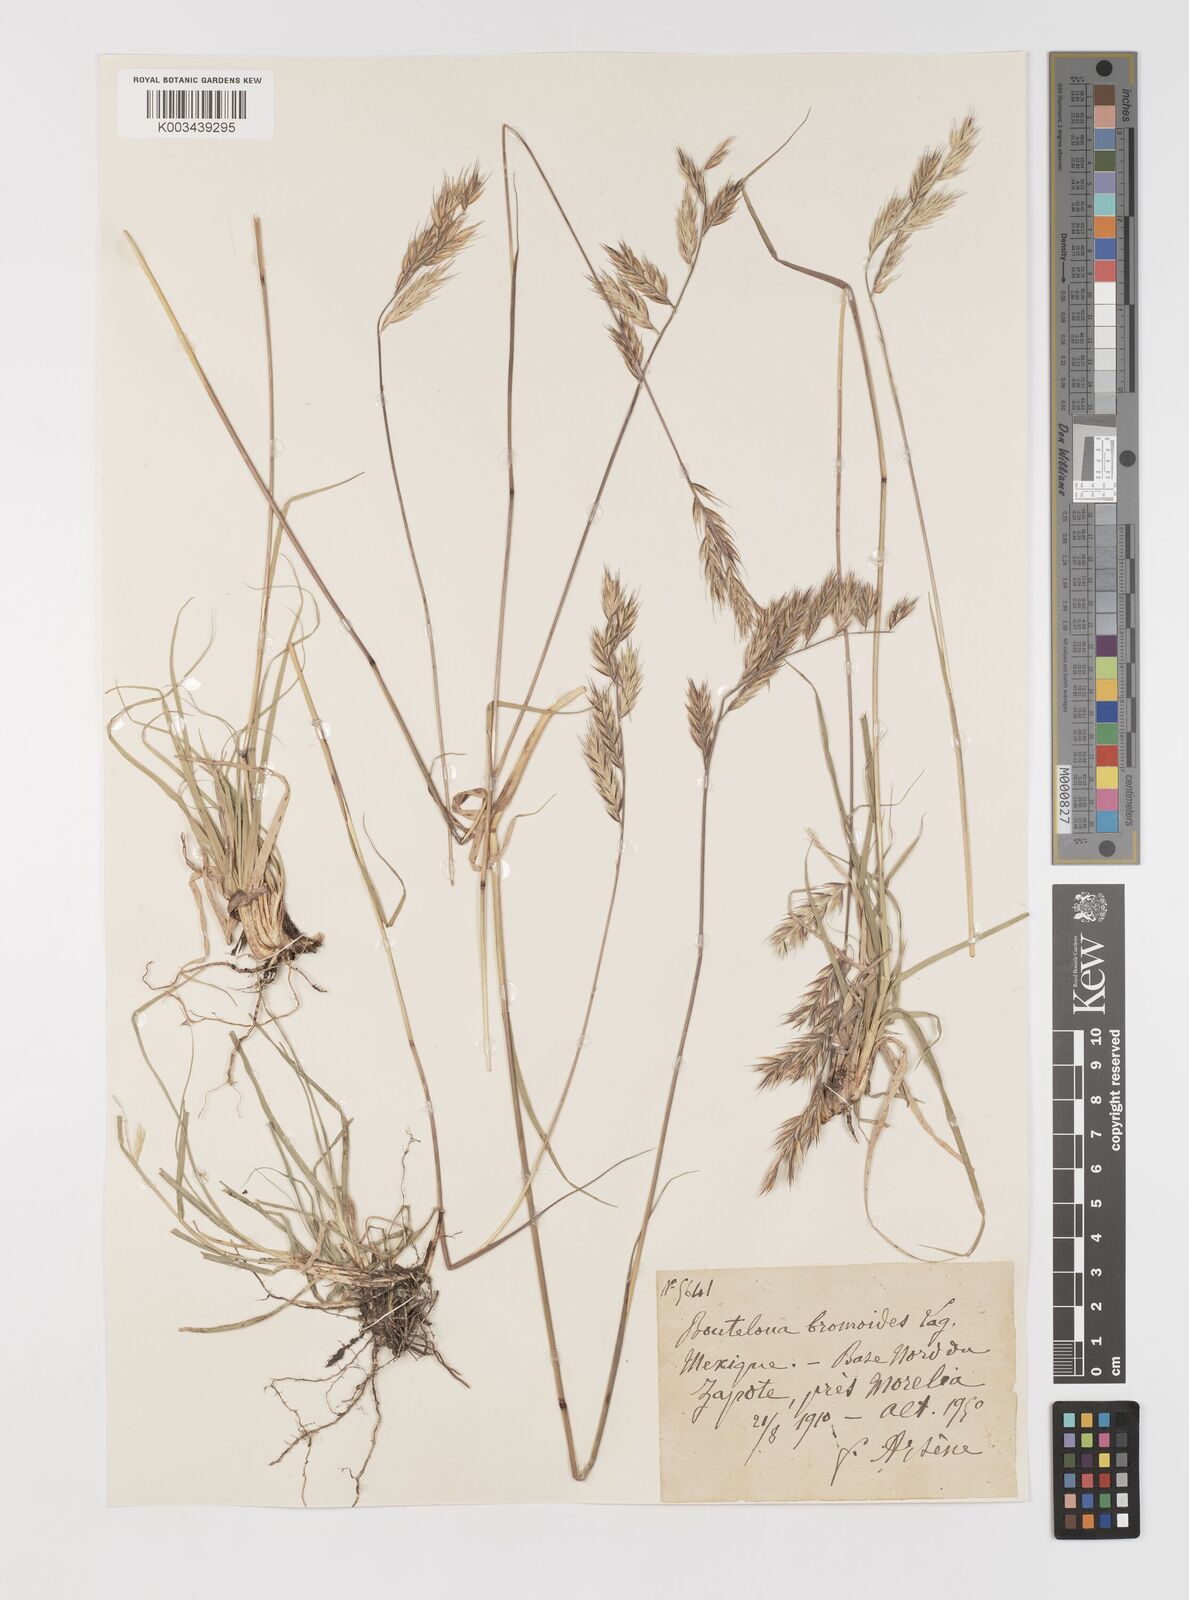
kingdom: Plantae
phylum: Tracheophyta
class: Liliopsida
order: Poales
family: Poaceae
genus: Bouteloua
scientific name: Bouteloua repens
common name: Slender grama
